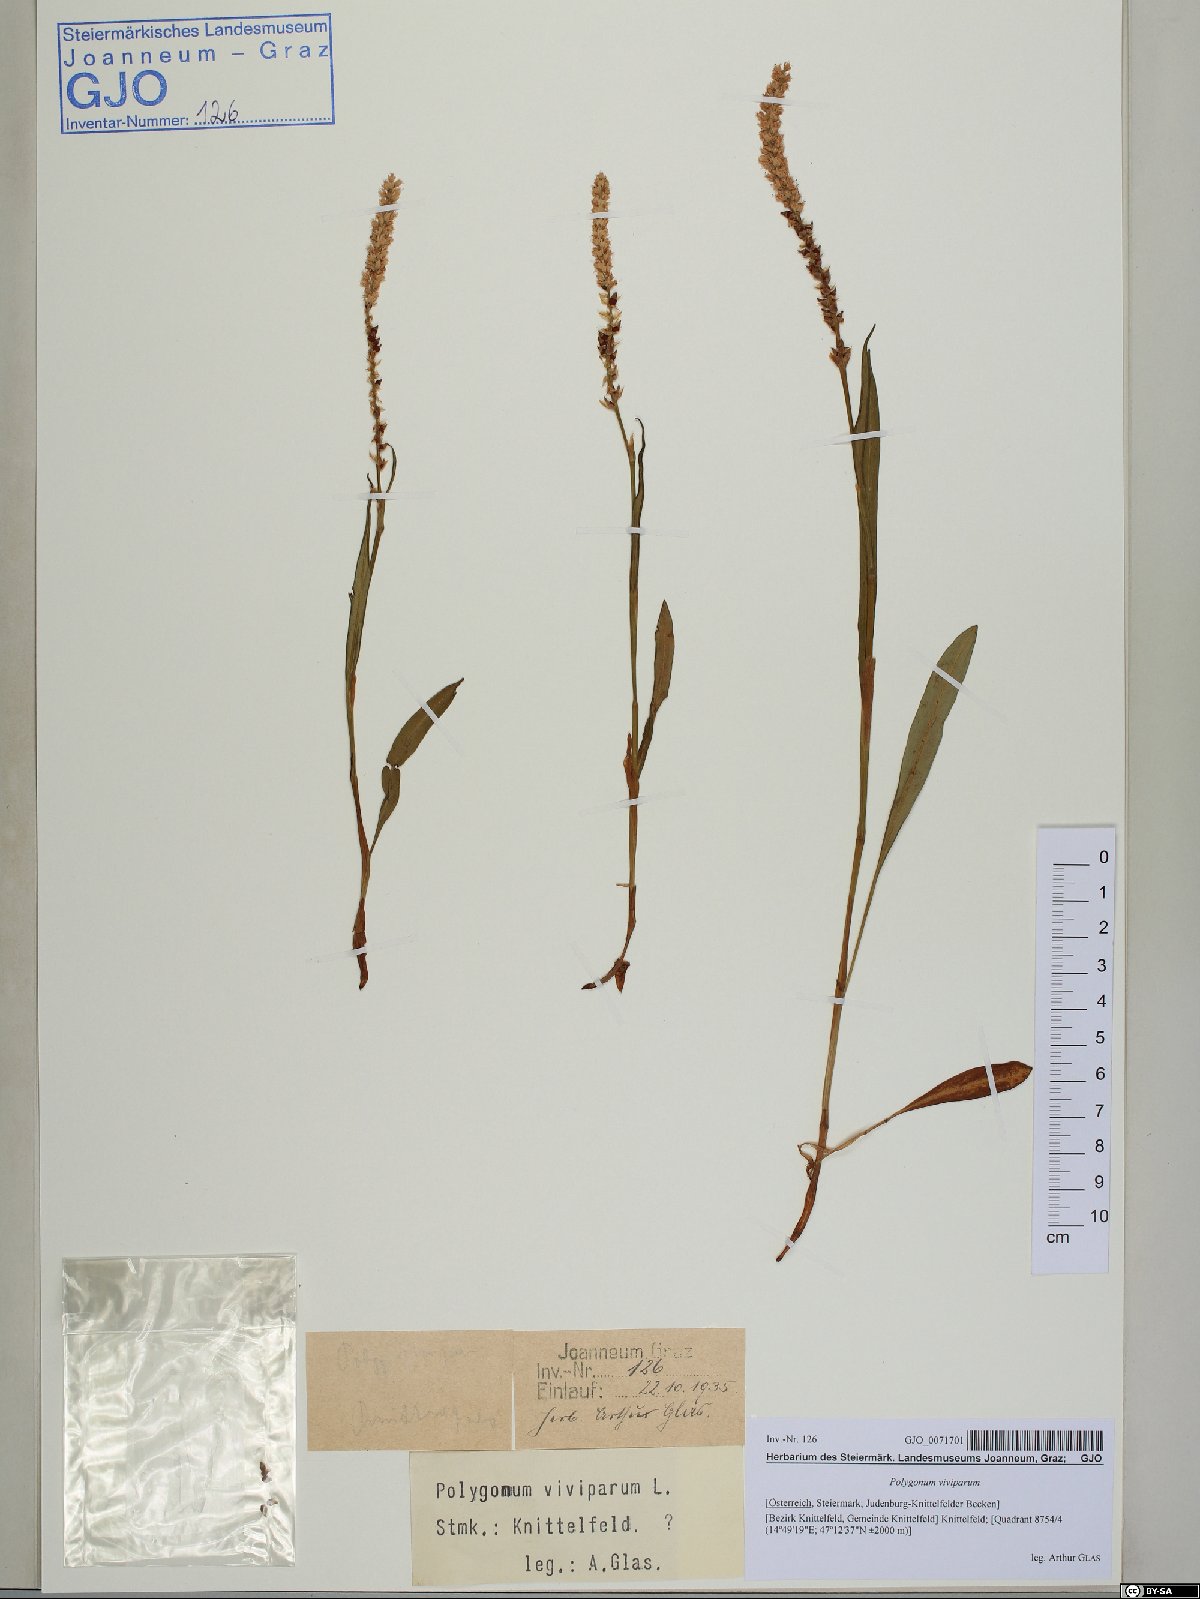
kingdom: Plantae
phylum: Tracheophyta
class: Magnoliopsida
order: Caryophyllales
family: Polygonaceae
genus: Bistorta
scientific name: Bistorta vivipara
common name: Alpine bistort
